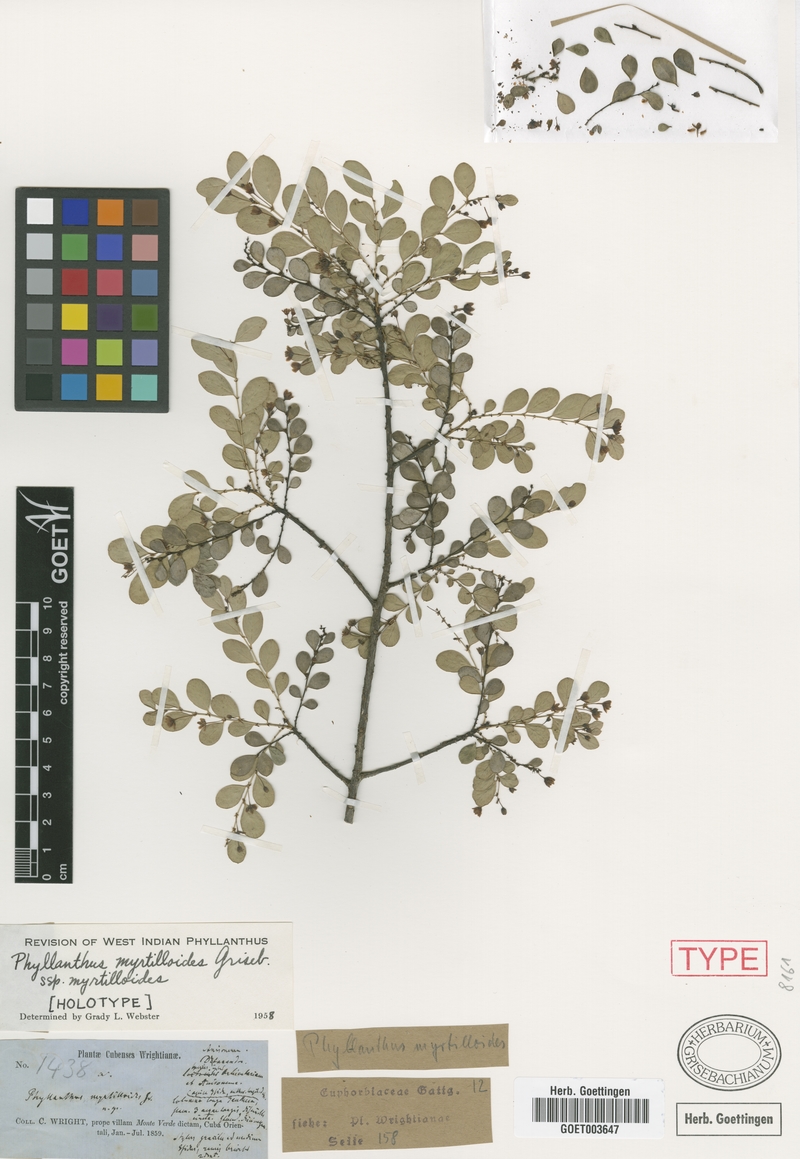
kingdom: Plantae
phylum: Tracheophyta
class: Magnoliopsida
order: Malpighiales
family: Phyllanthaceae
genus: Phyllanthus
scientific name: Phyllanthus myrtilloides
